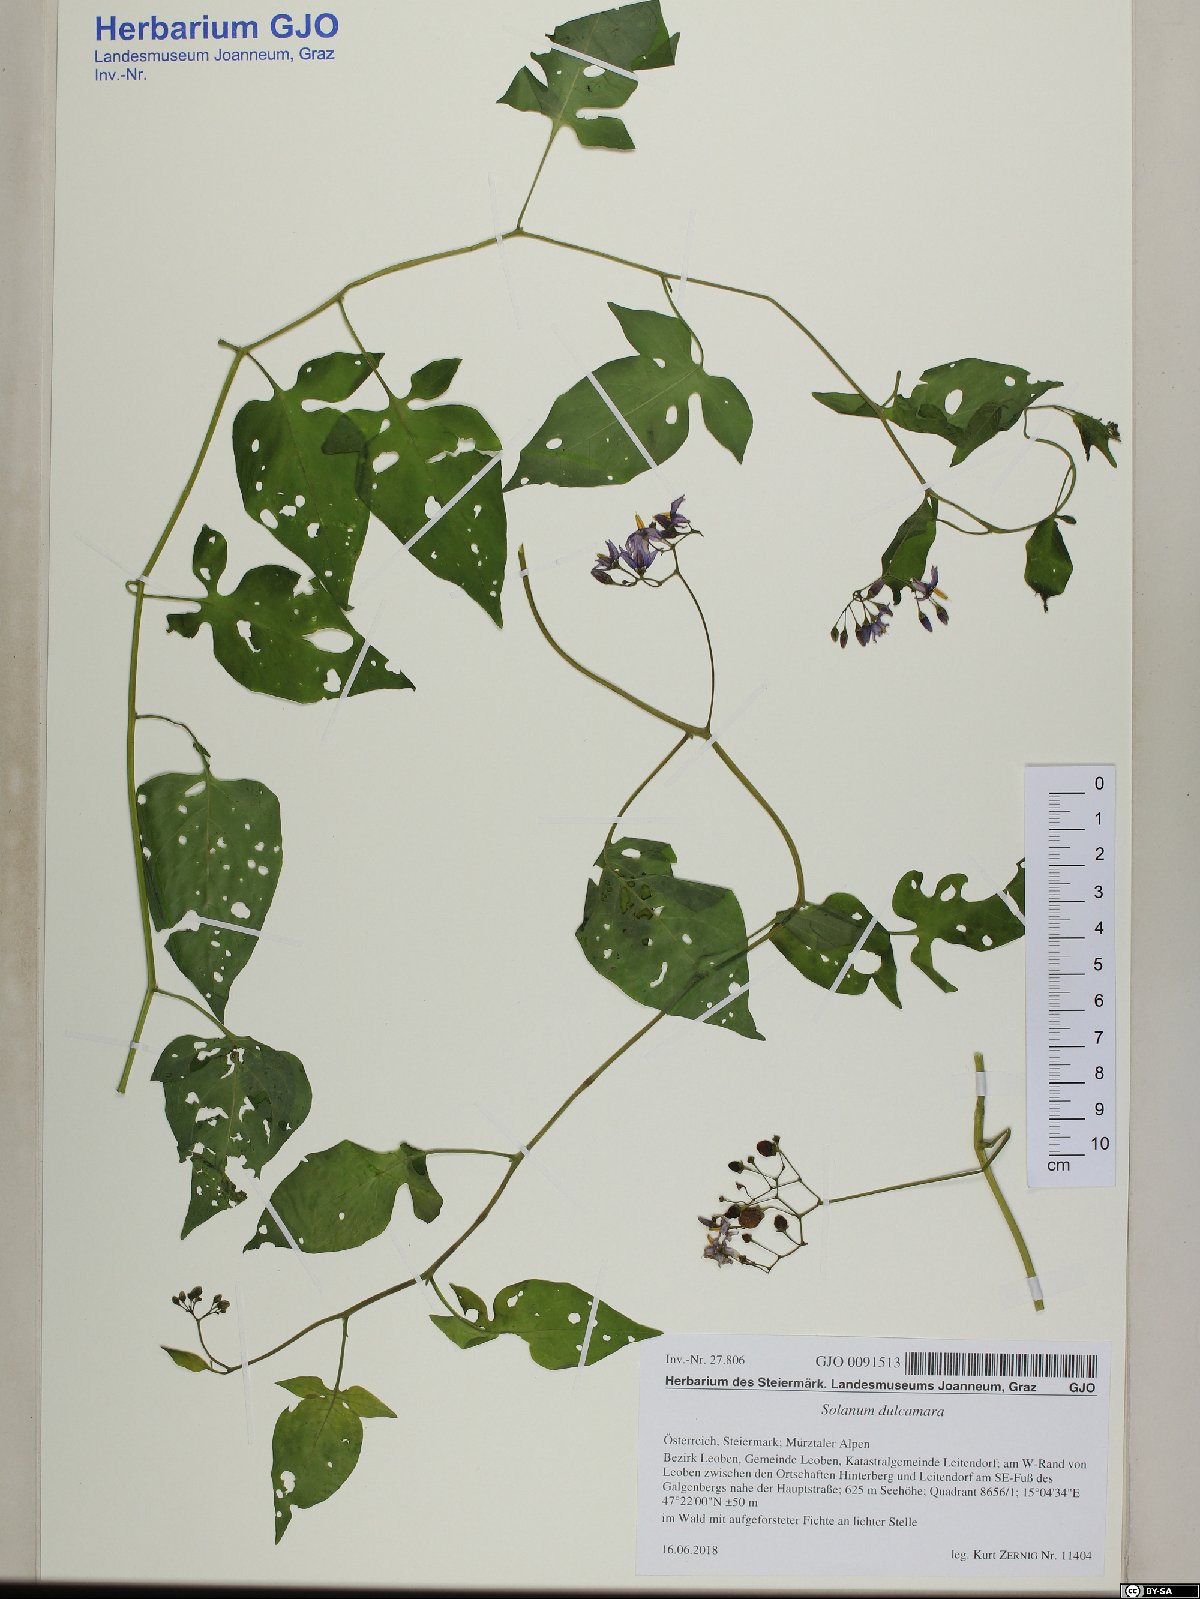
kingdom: Plantae
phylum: Tracheophyta
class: Magnoliopsida
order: Solanales
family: Solanaceae
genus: Solanum
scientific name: Solanum dulcamara
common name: Climbing nightshade
